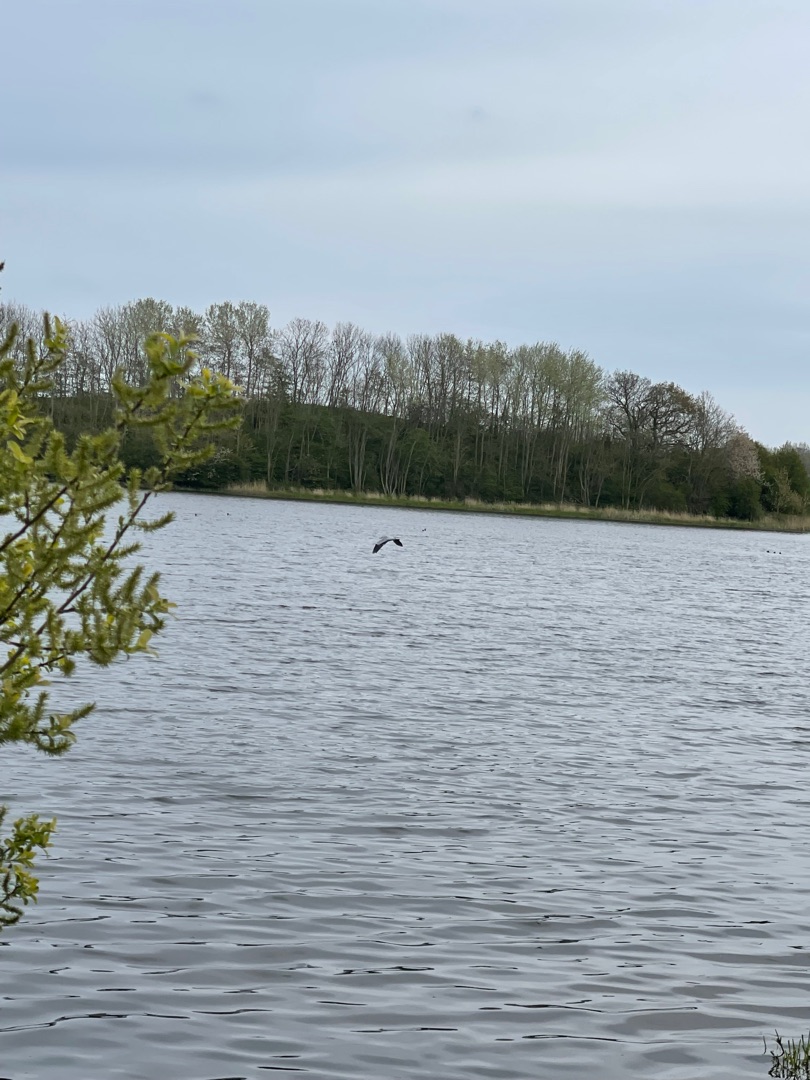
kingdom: Animalia
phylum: Chordata
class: Aves
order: Pelecaniformes
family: Ardeidae
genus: Ardea
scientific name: Ardea cinerea
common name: Fiskehejre
